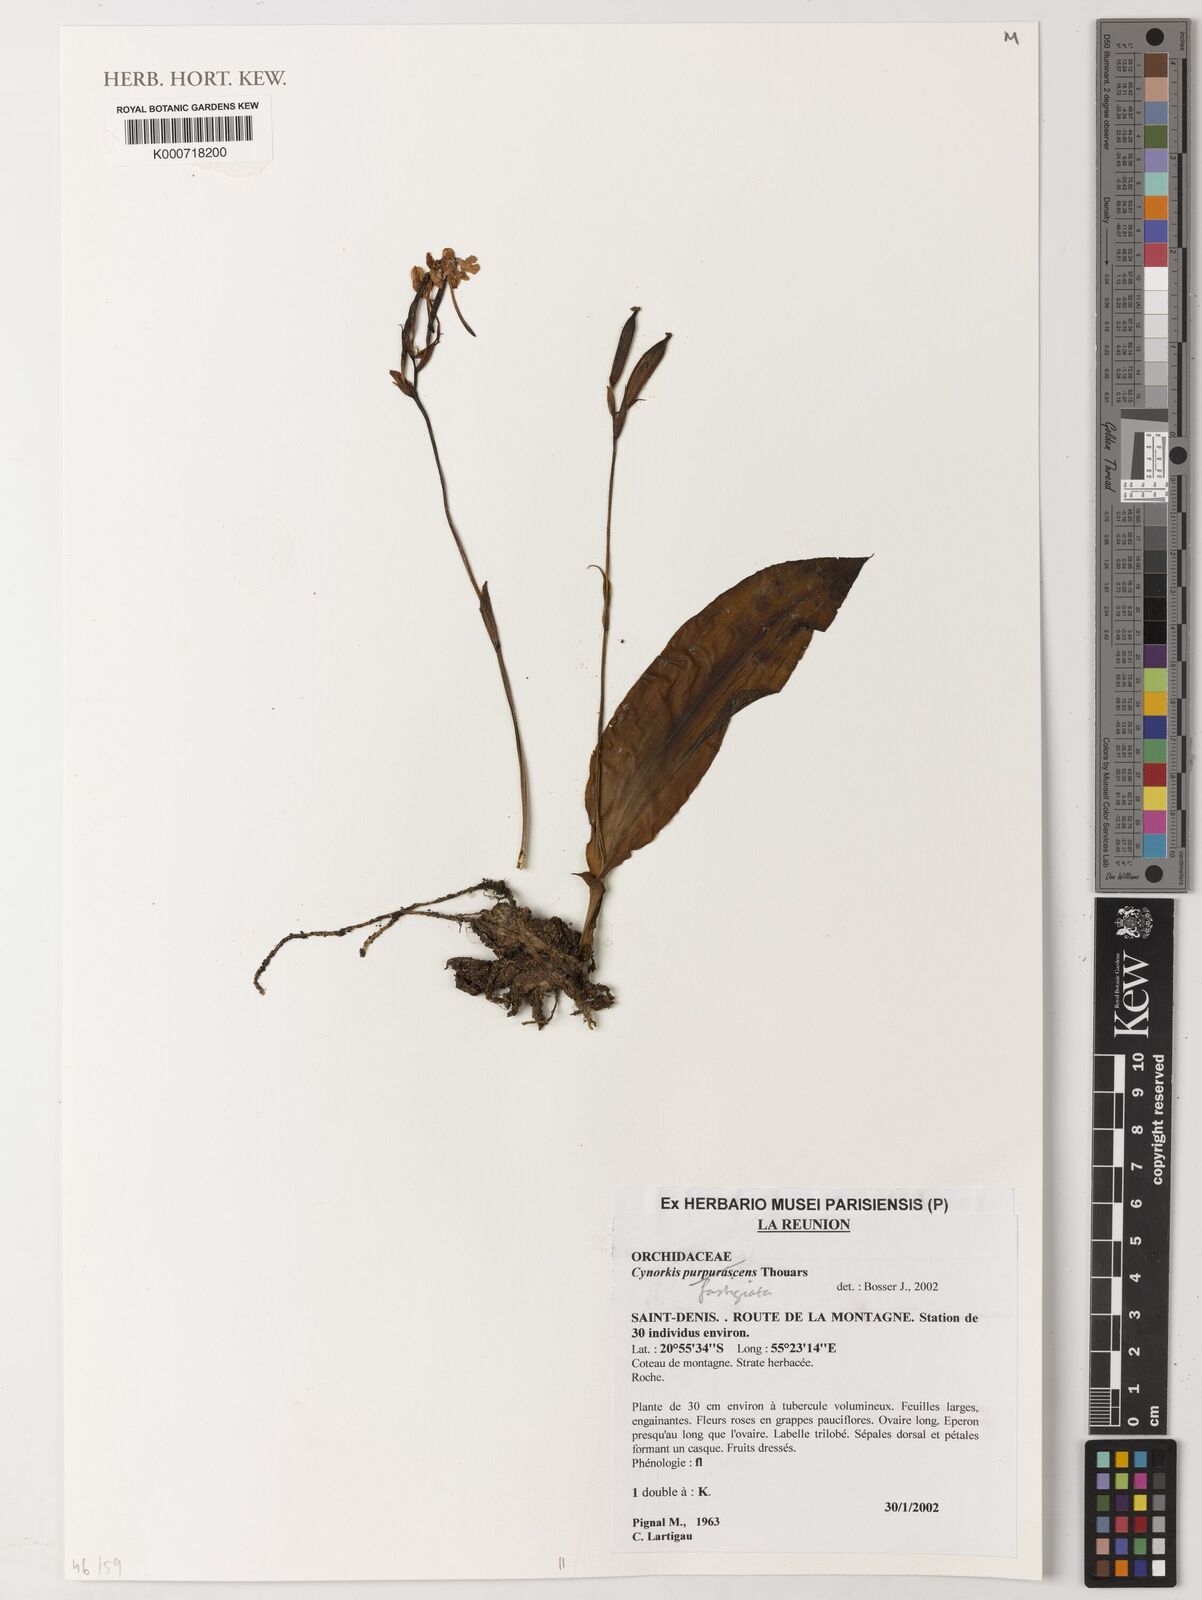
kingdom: Plantae
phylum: Tracheophyta
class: Liliopsida
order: Asparagales
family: Orchidaceae
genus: Cynorkis
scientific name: Cynorkis lowiana
